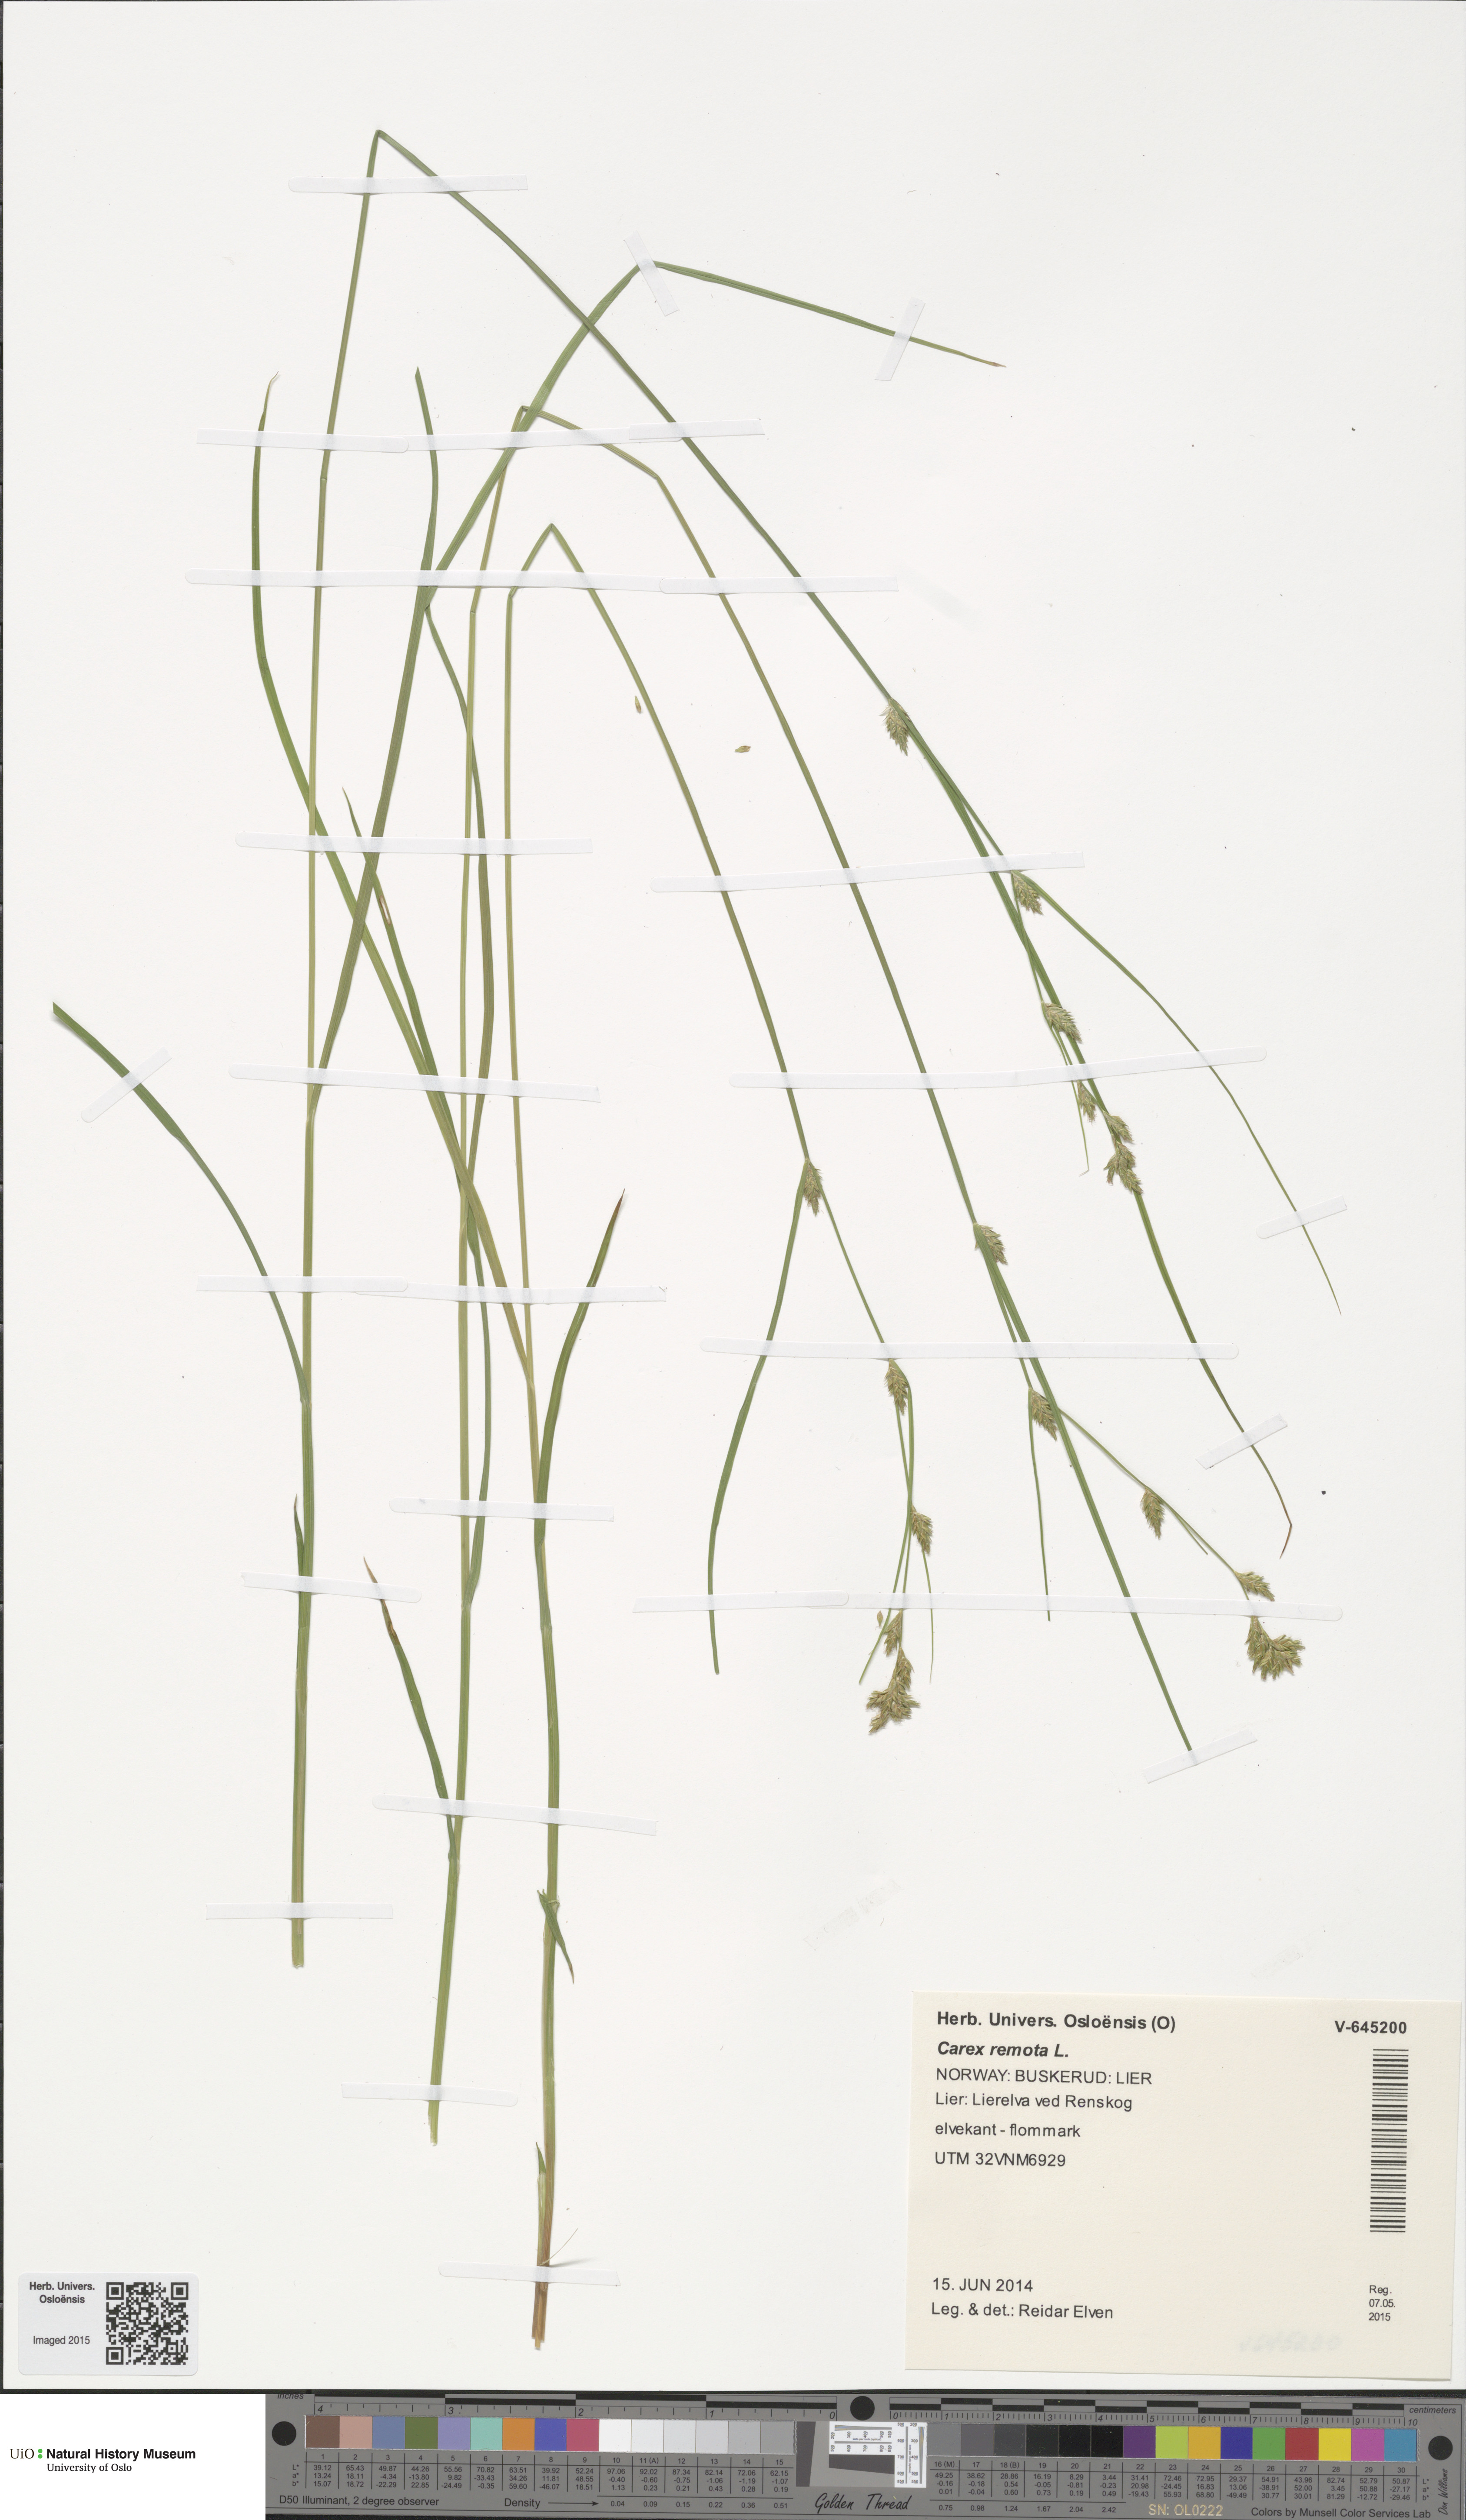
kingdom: Plantae
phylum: Tracheophyta
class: Liliopsida
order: Poales
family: Cyperaceae
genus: Carex
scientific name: Carex remota
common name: Remote sedge
